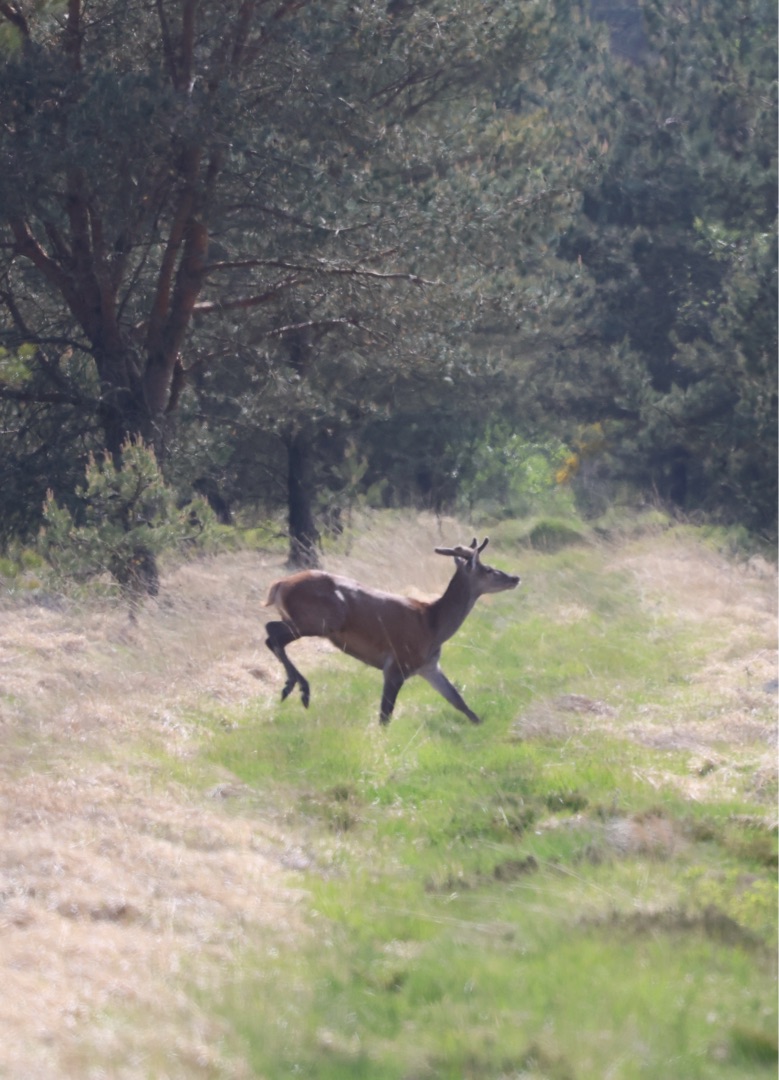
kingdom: Animalia
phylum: Chordata
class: Mammalia
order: Artiodactyla
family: Cervidae
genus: Cervus
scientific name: Cervus elaphus
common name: Krondyr
